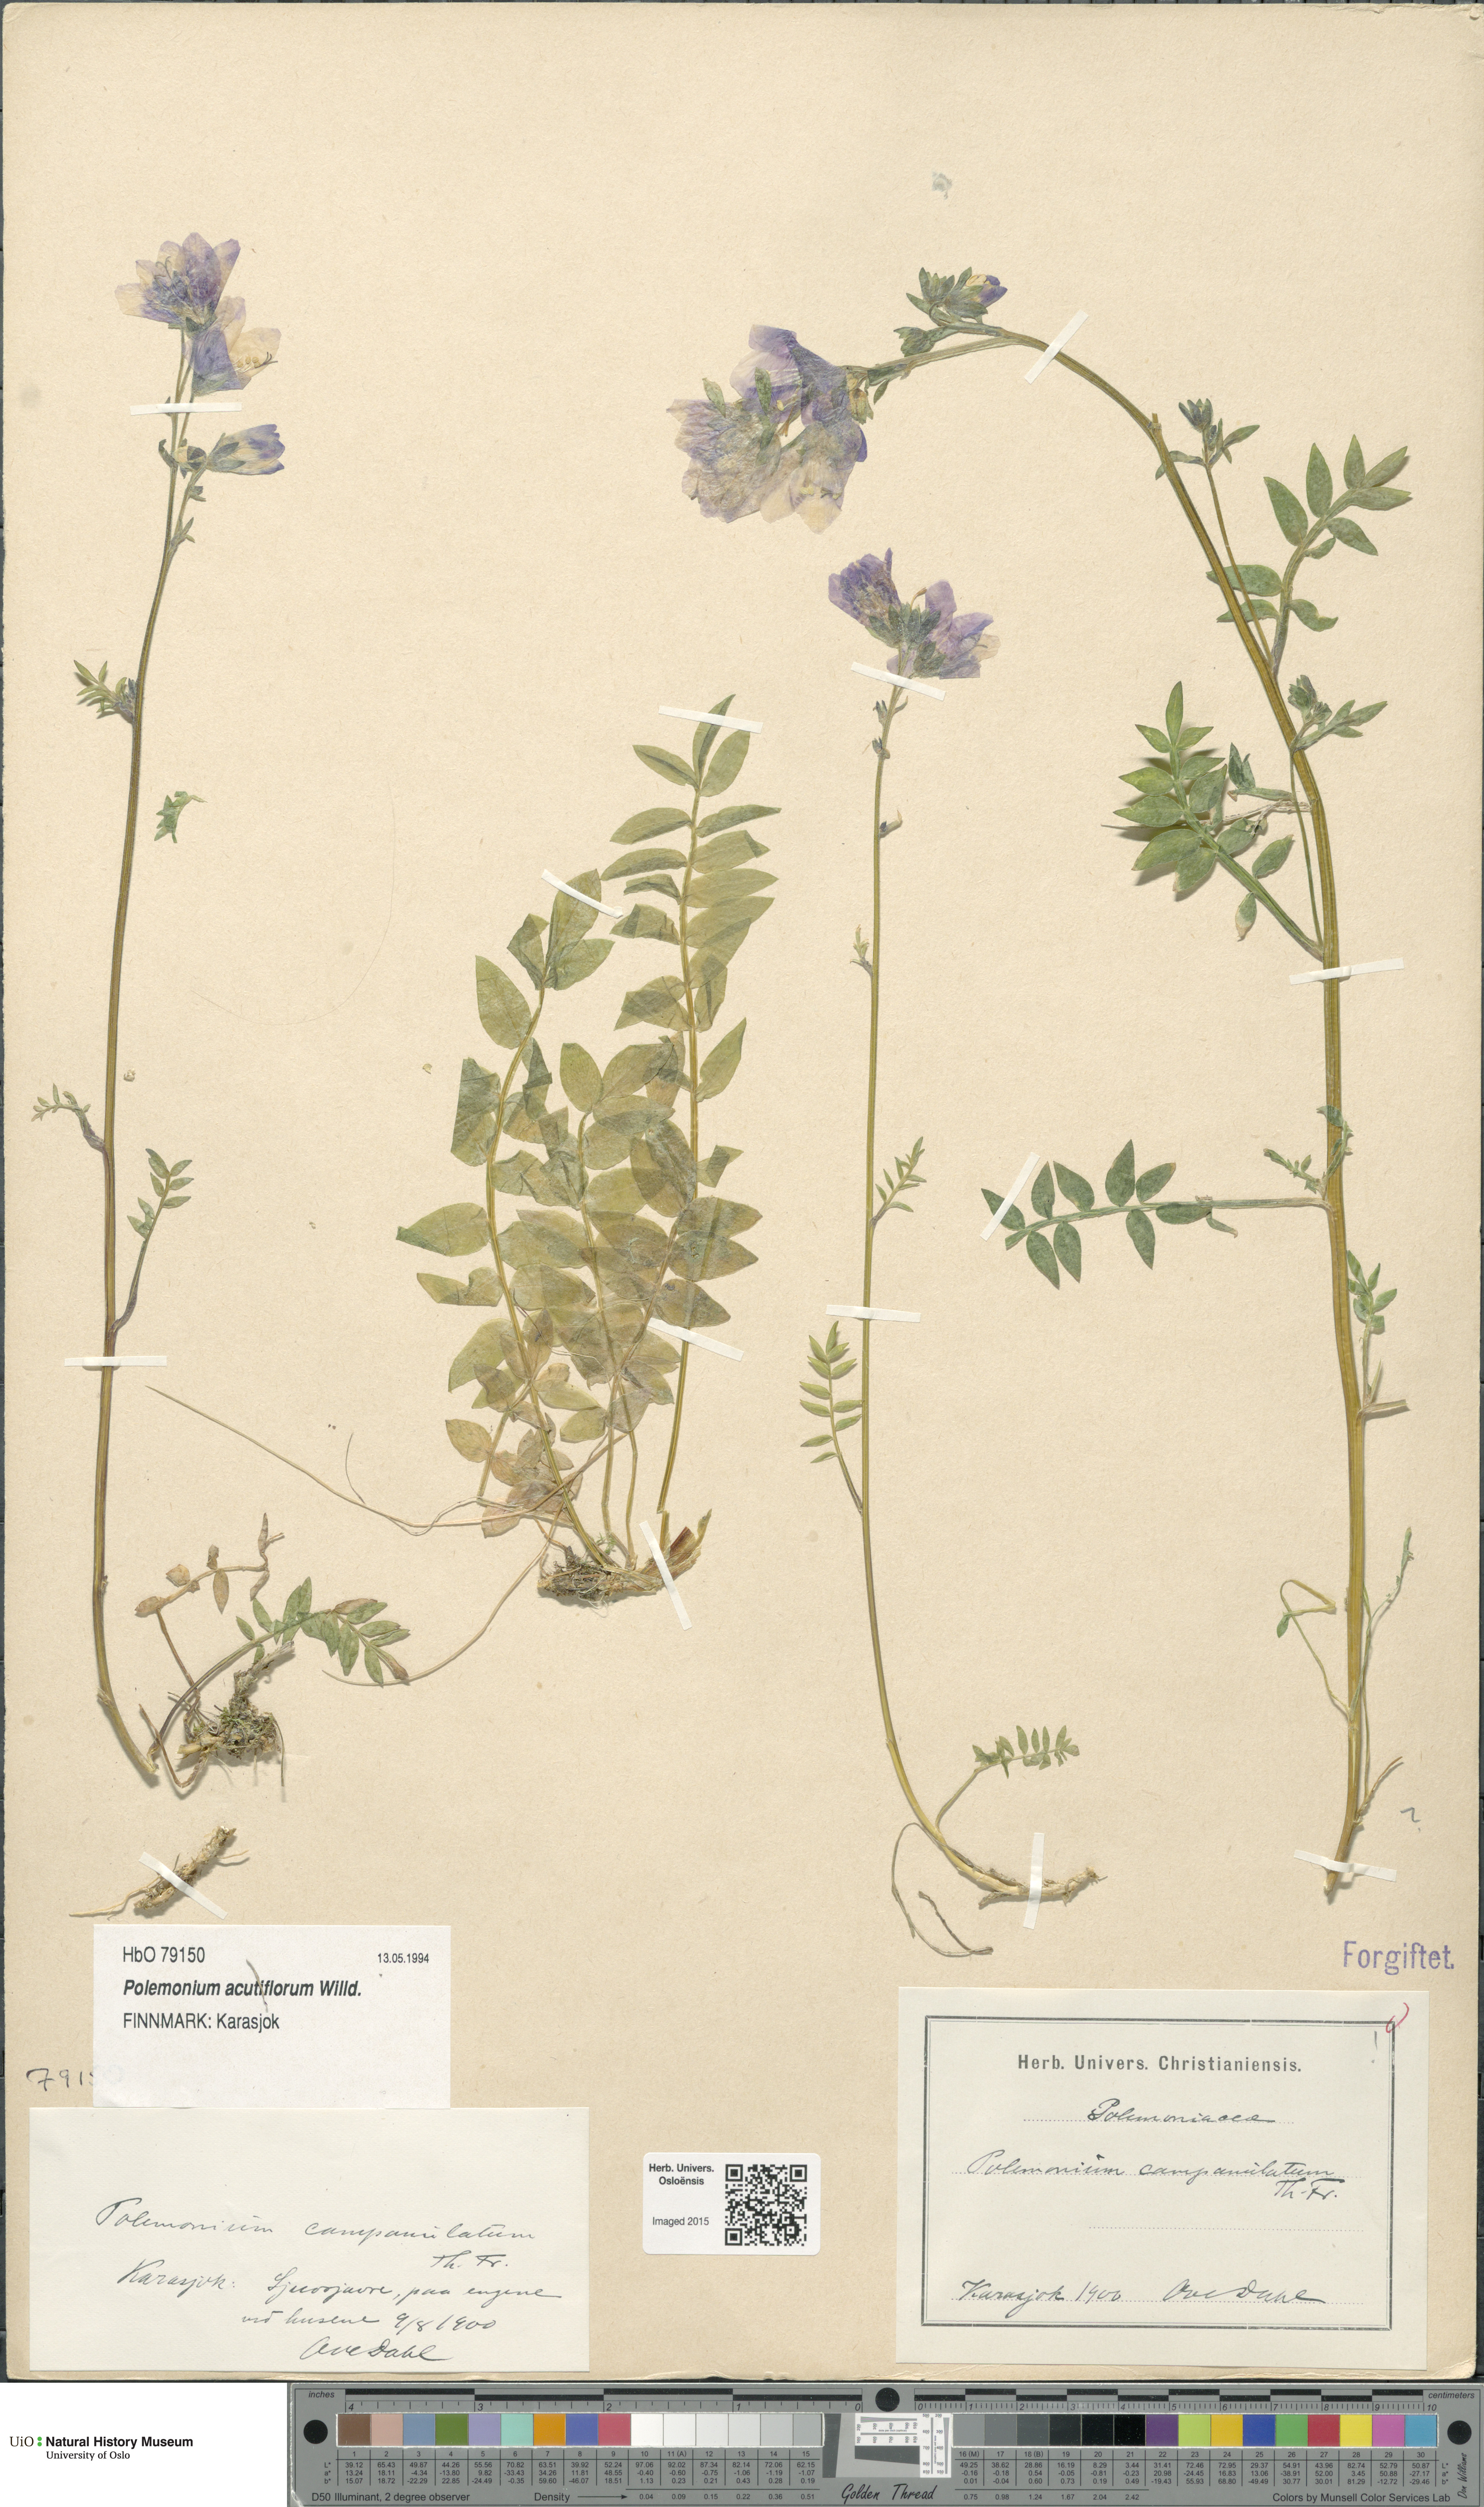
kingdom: Plantae
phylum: Tracheophyta
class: Magnoliopsida
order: Ericales
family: Polemoniaceae
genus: Polemonium
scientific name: Polemonium villosum
